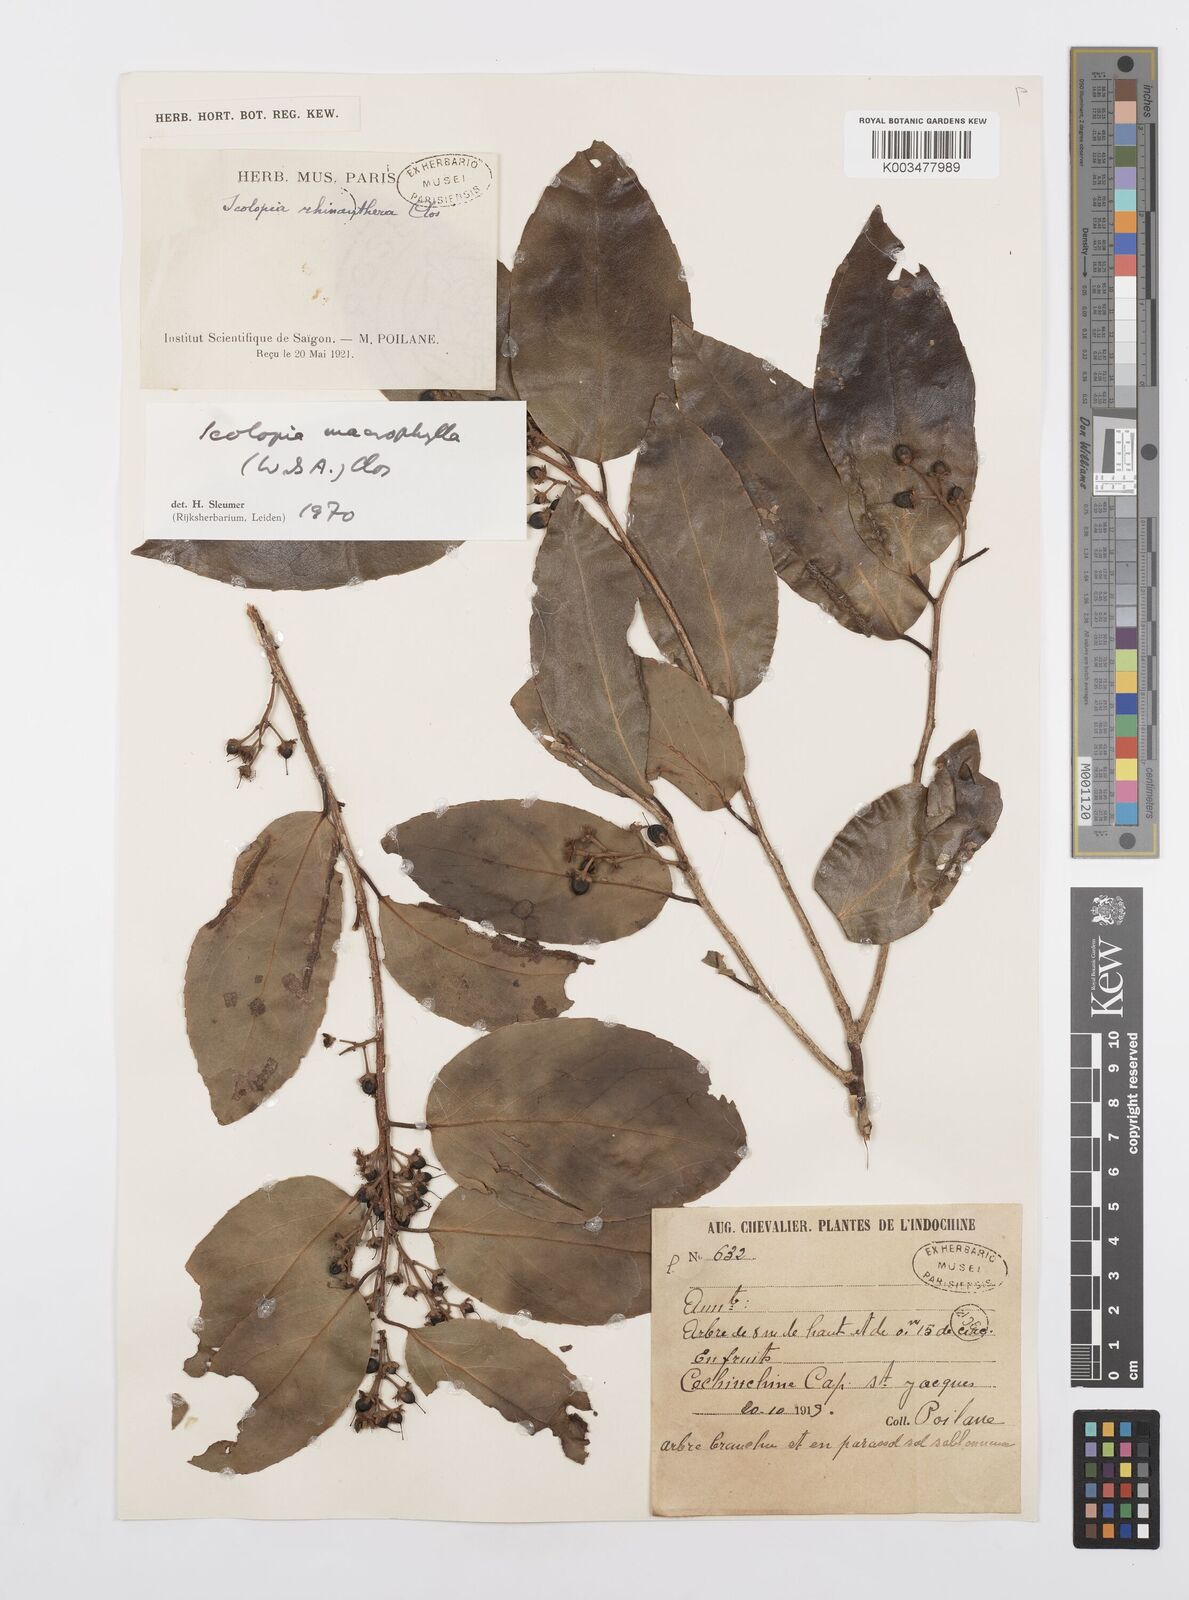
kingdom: Plantae
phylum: Tracheophyta
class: Magnoliopsida
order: Malpighiales
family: Salicaceae
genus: Scolopia
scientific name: Scolopia macrophylla
